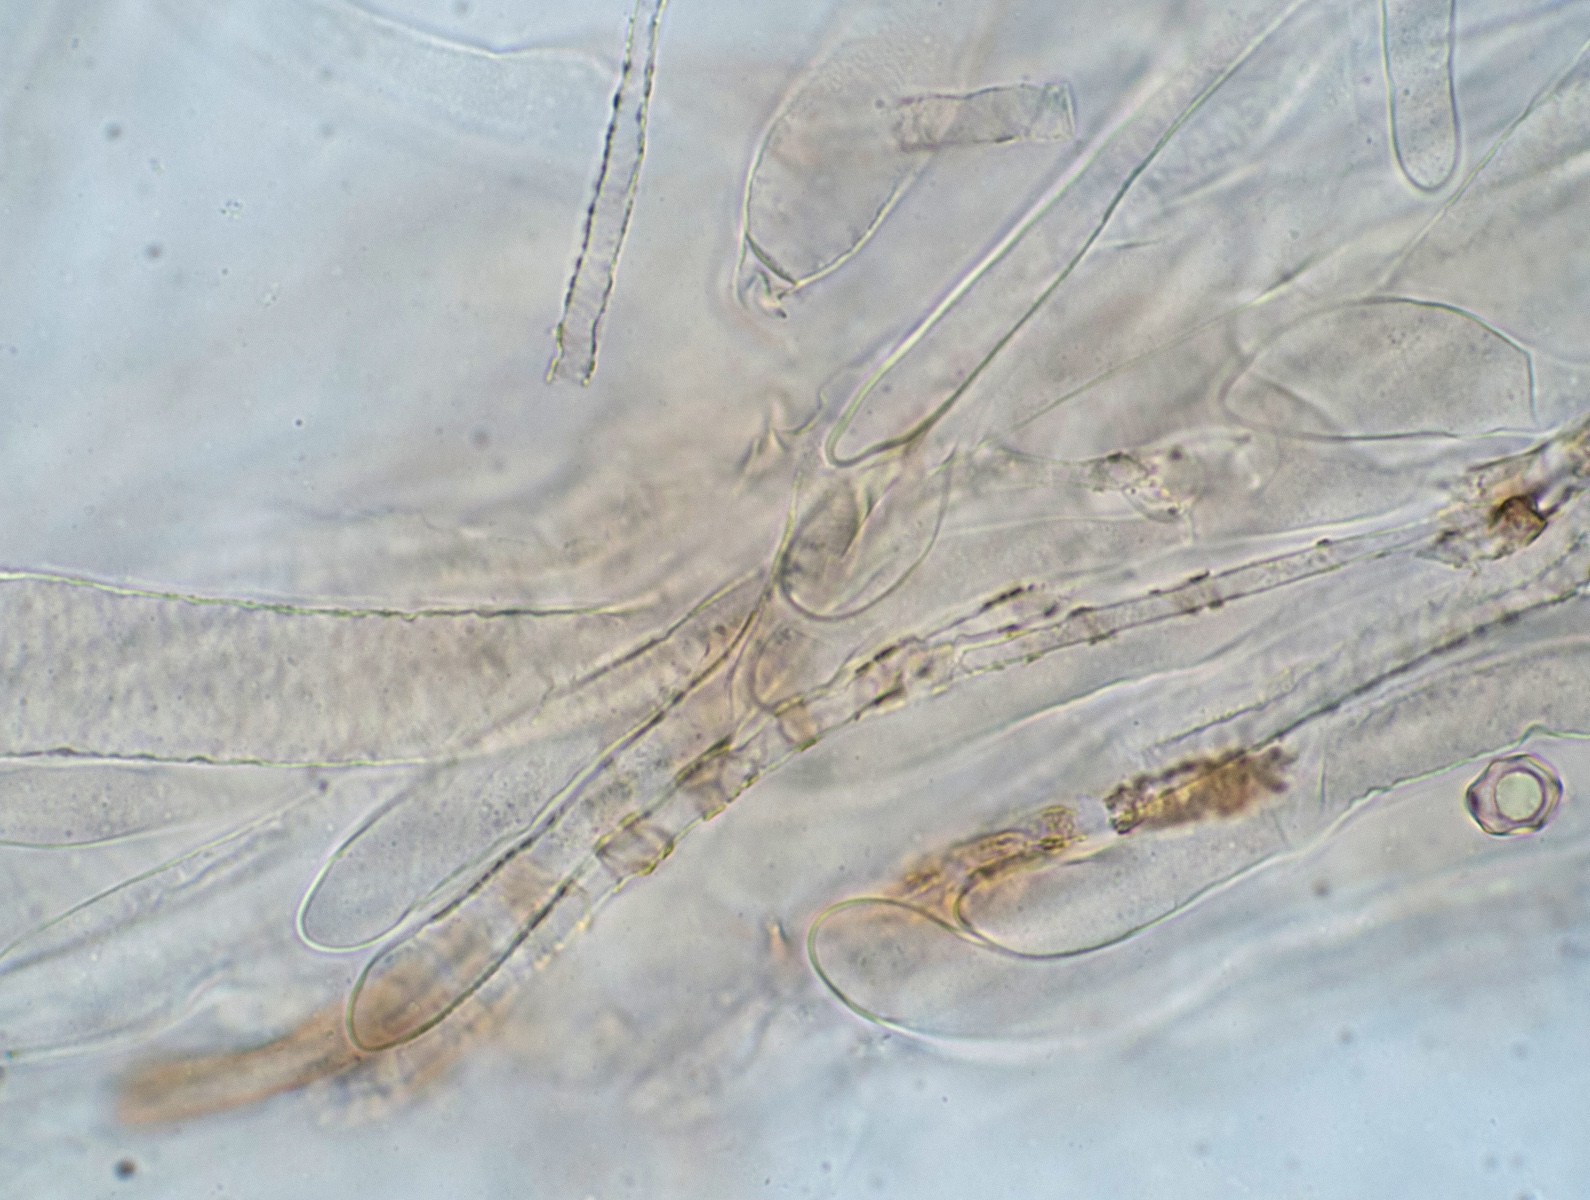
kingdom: Fungi
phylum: Basidiomycota
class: Agaricomycetes
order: Agaricales
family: Entolomataceae
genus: Entoloma
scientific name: Entoloma sericatum
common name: rank rødblad
